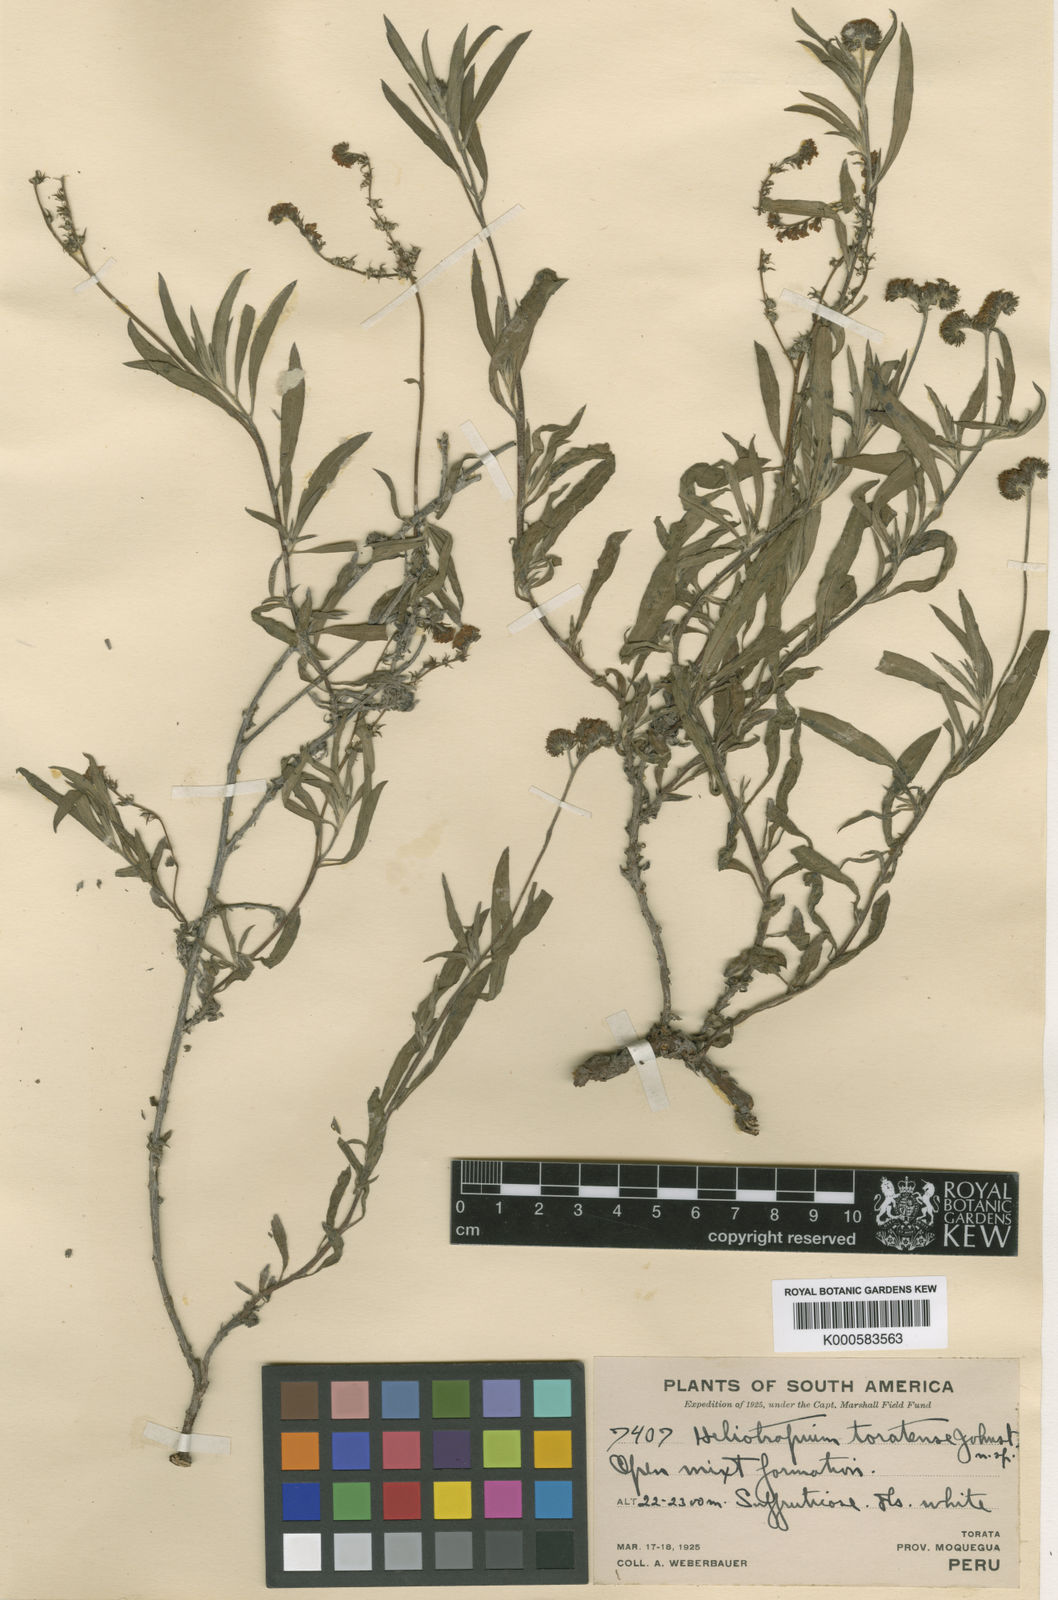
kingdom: Plantae
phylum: Tracheophyta
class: Magnoliopsida
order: Boraginales
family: Heliotropiaceae
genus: Euploca
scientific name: Euploca toratensis
